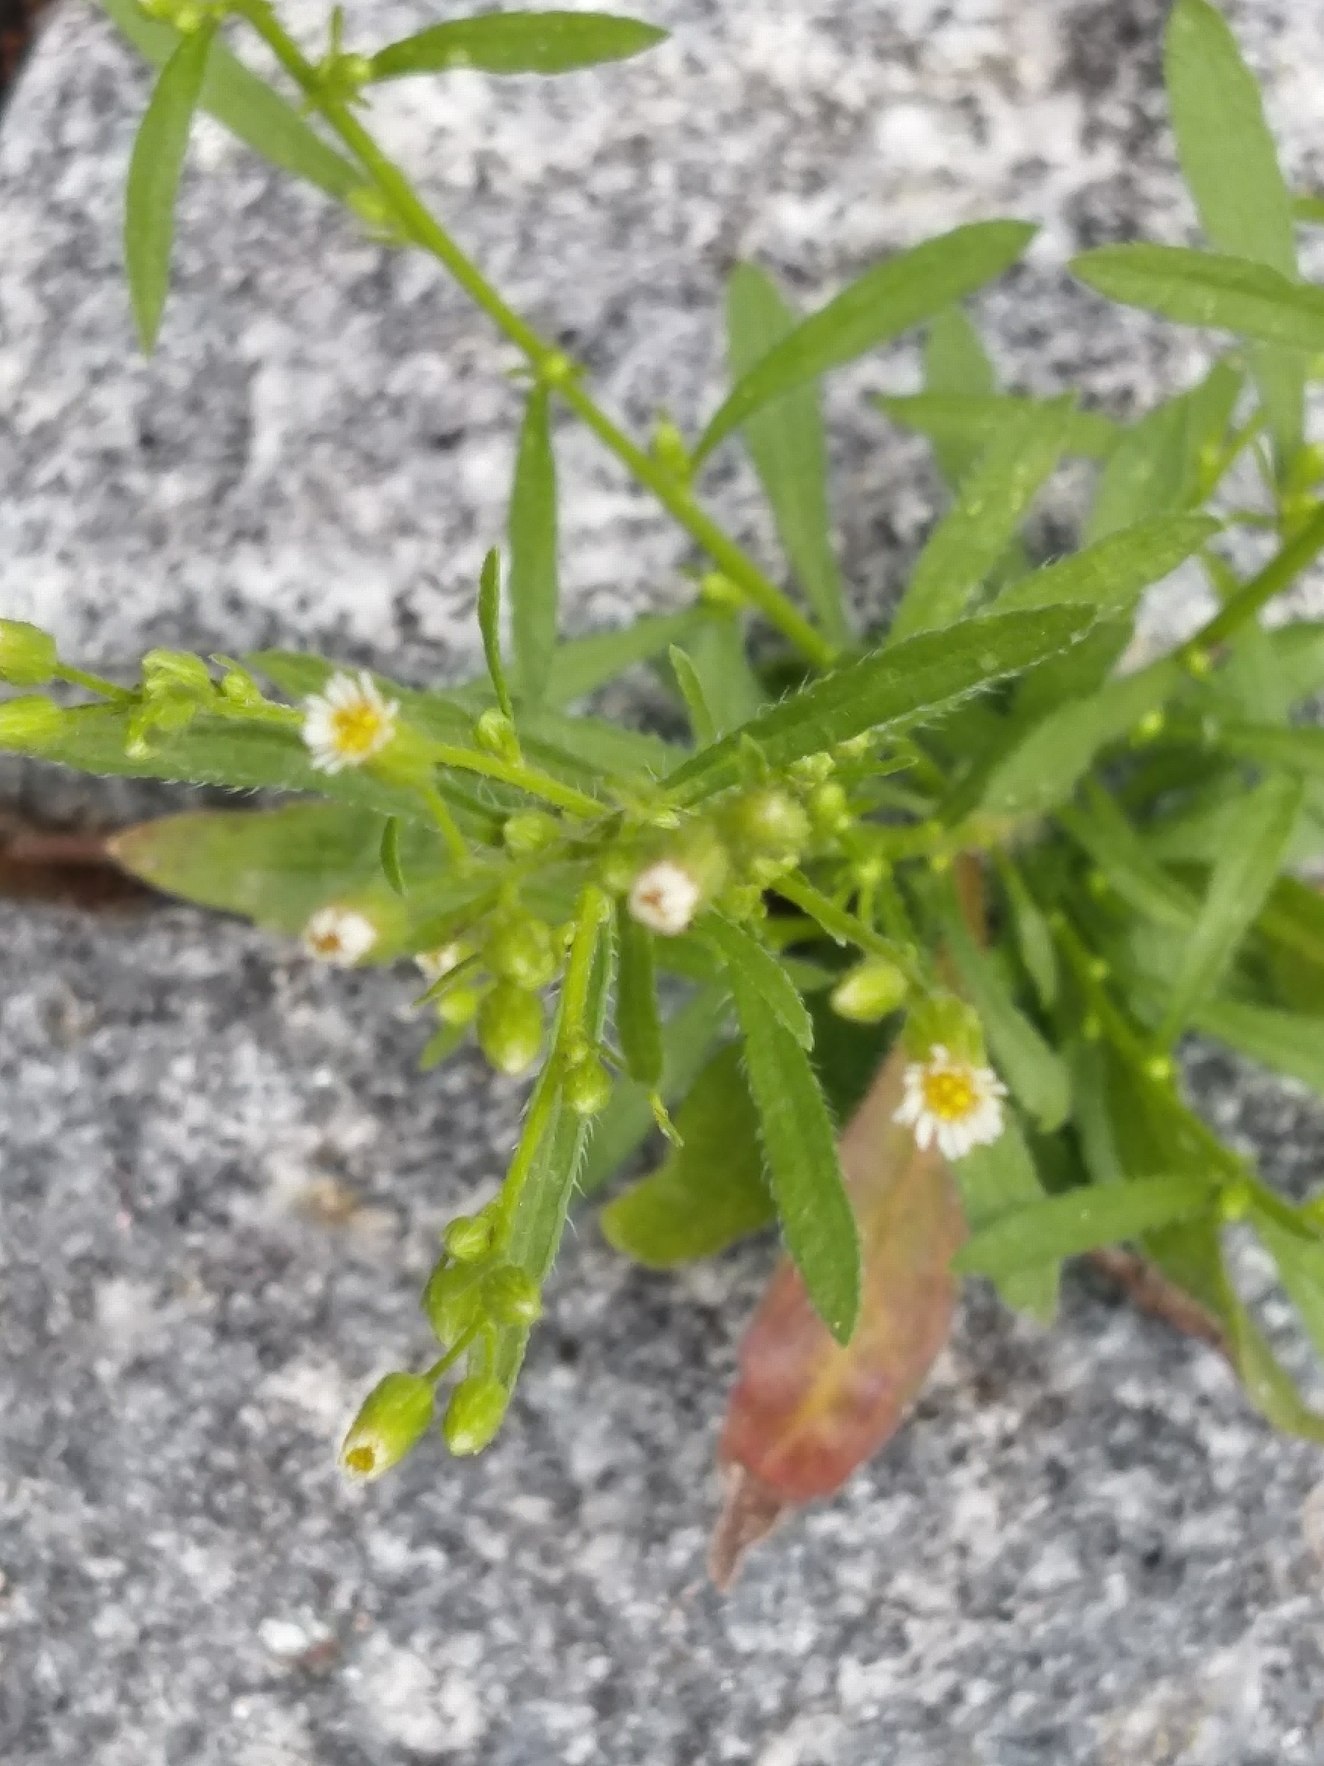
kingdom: Plantae
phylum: Tracheophyta
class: Magnoliopsida
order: Asterales
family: Asteraceae
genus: Erigeron
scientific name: Erigeron canadensis
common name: Kanadisk bakkestjerne
